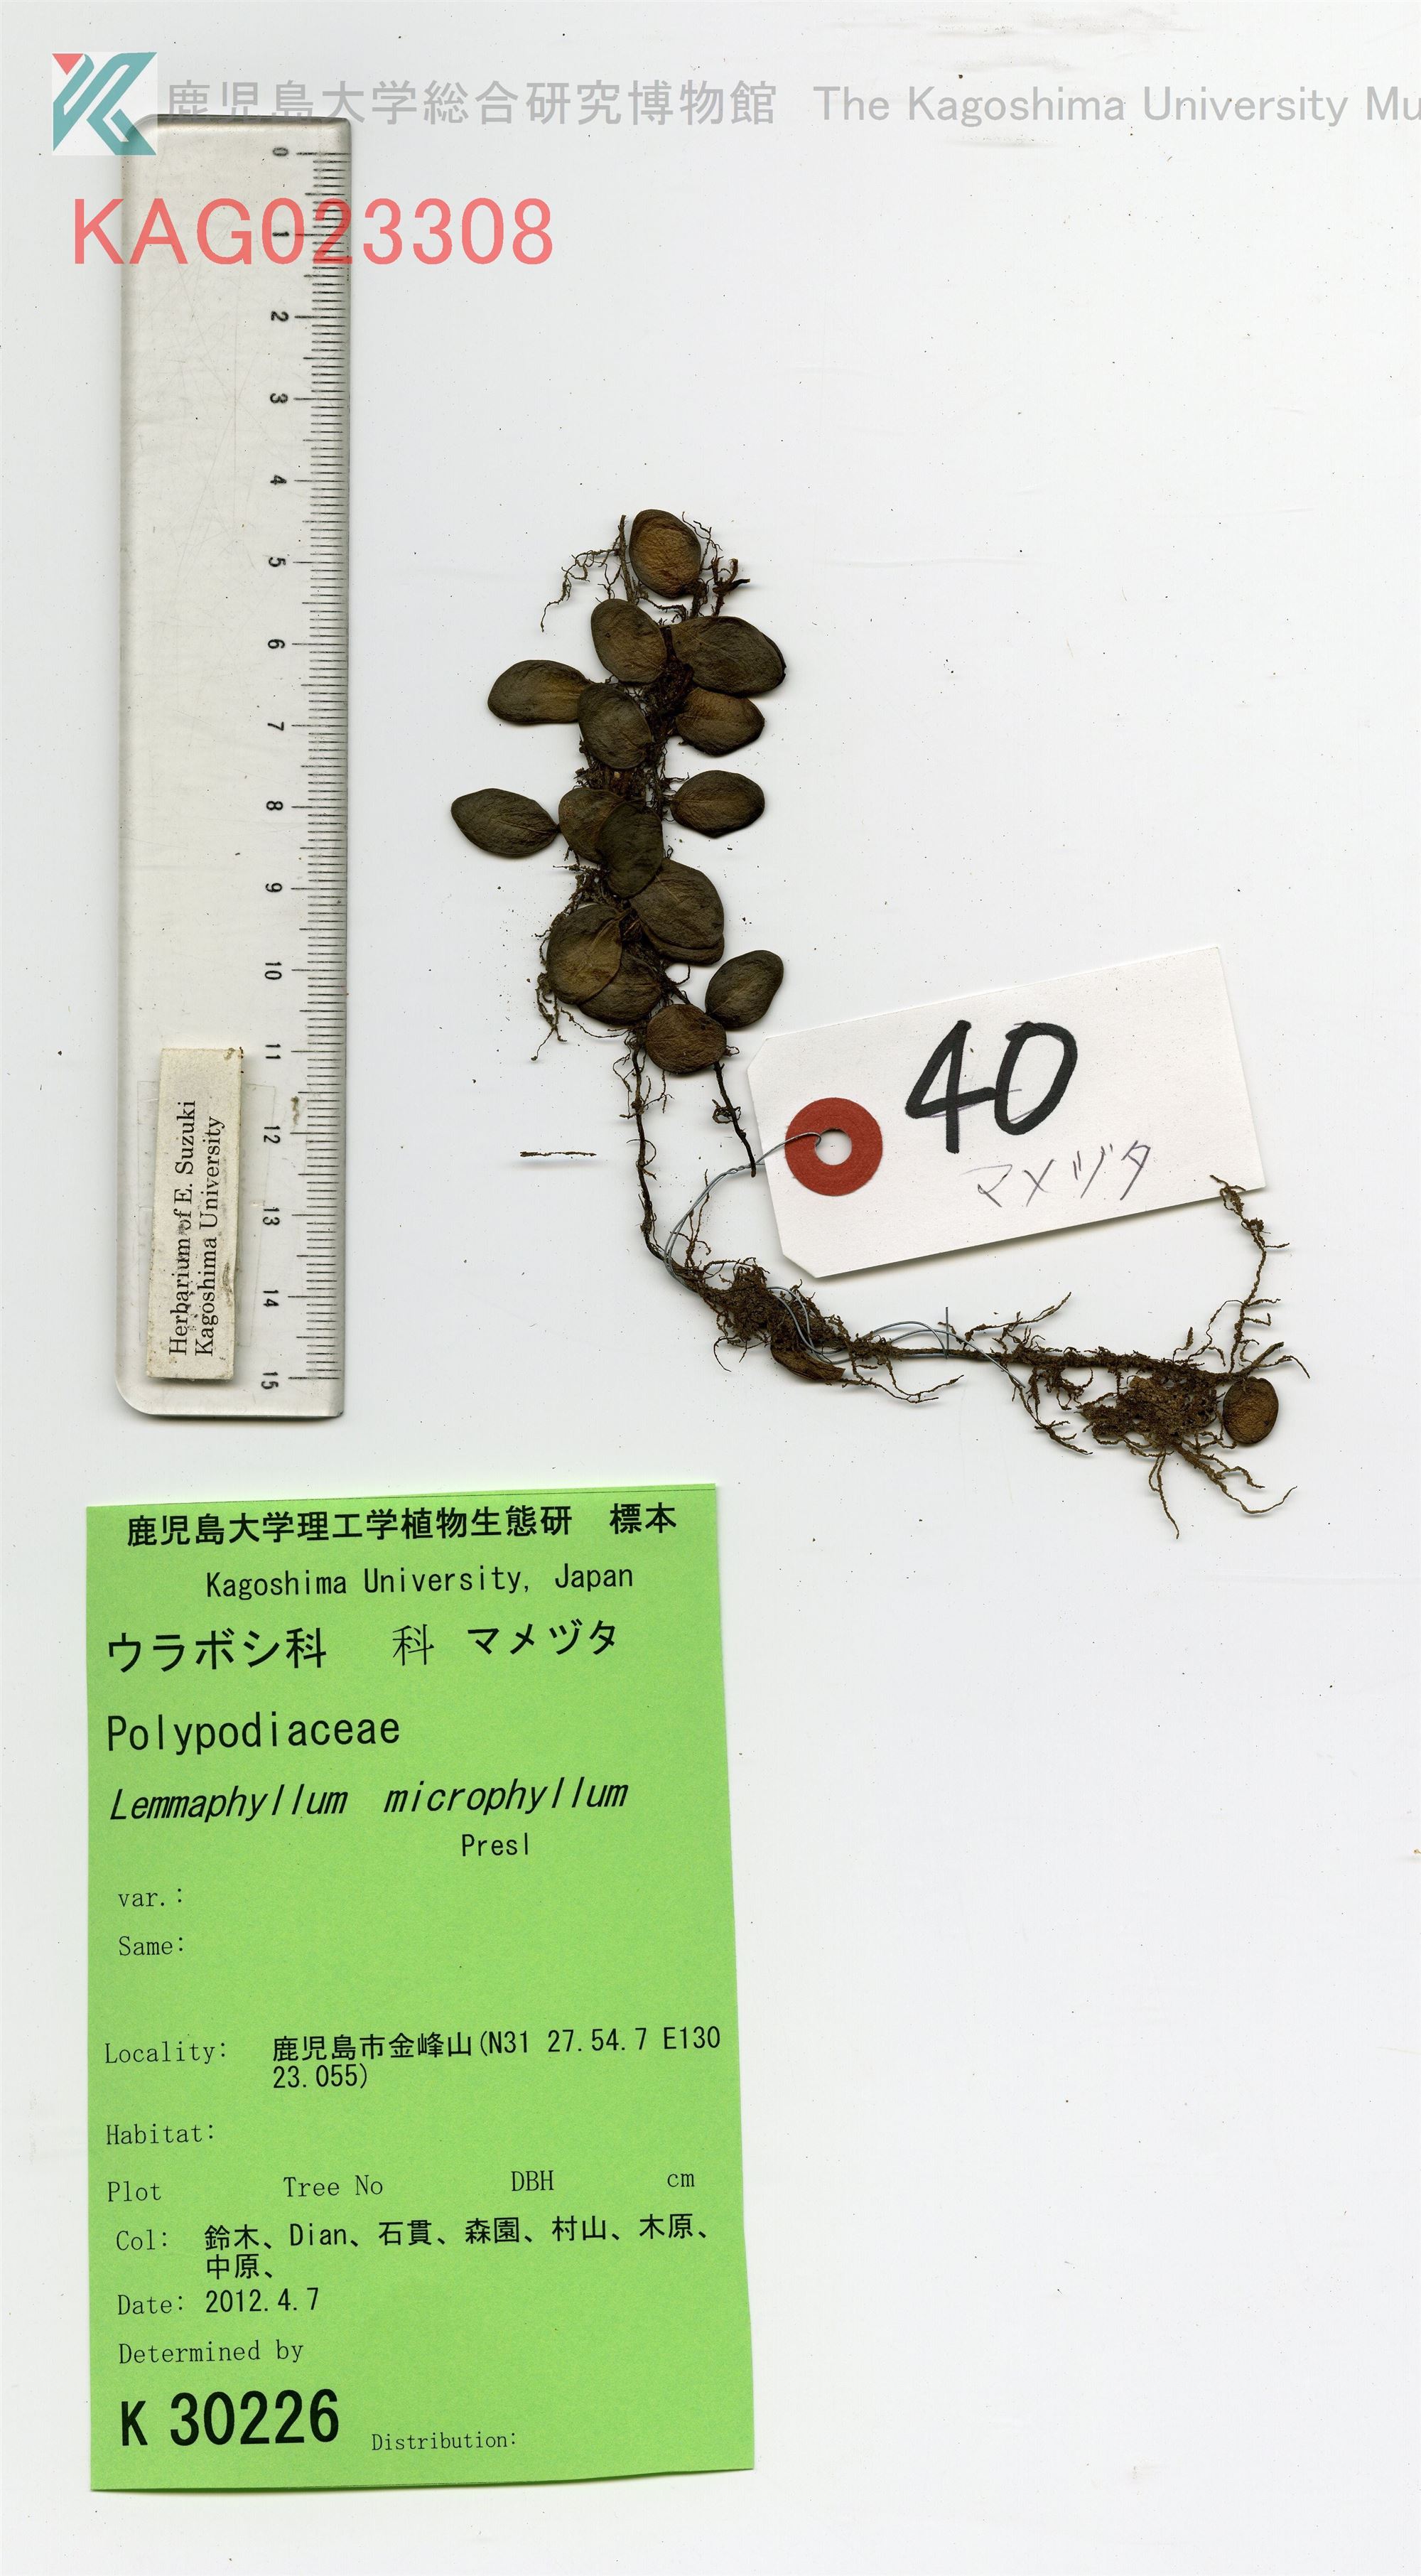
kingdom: Plantae
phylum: Tracheophyta
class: Polypodiopsida
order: Polypodiales
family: Polypodiaceae
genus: Lepisorus
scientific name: Lepisorus microphyllus
